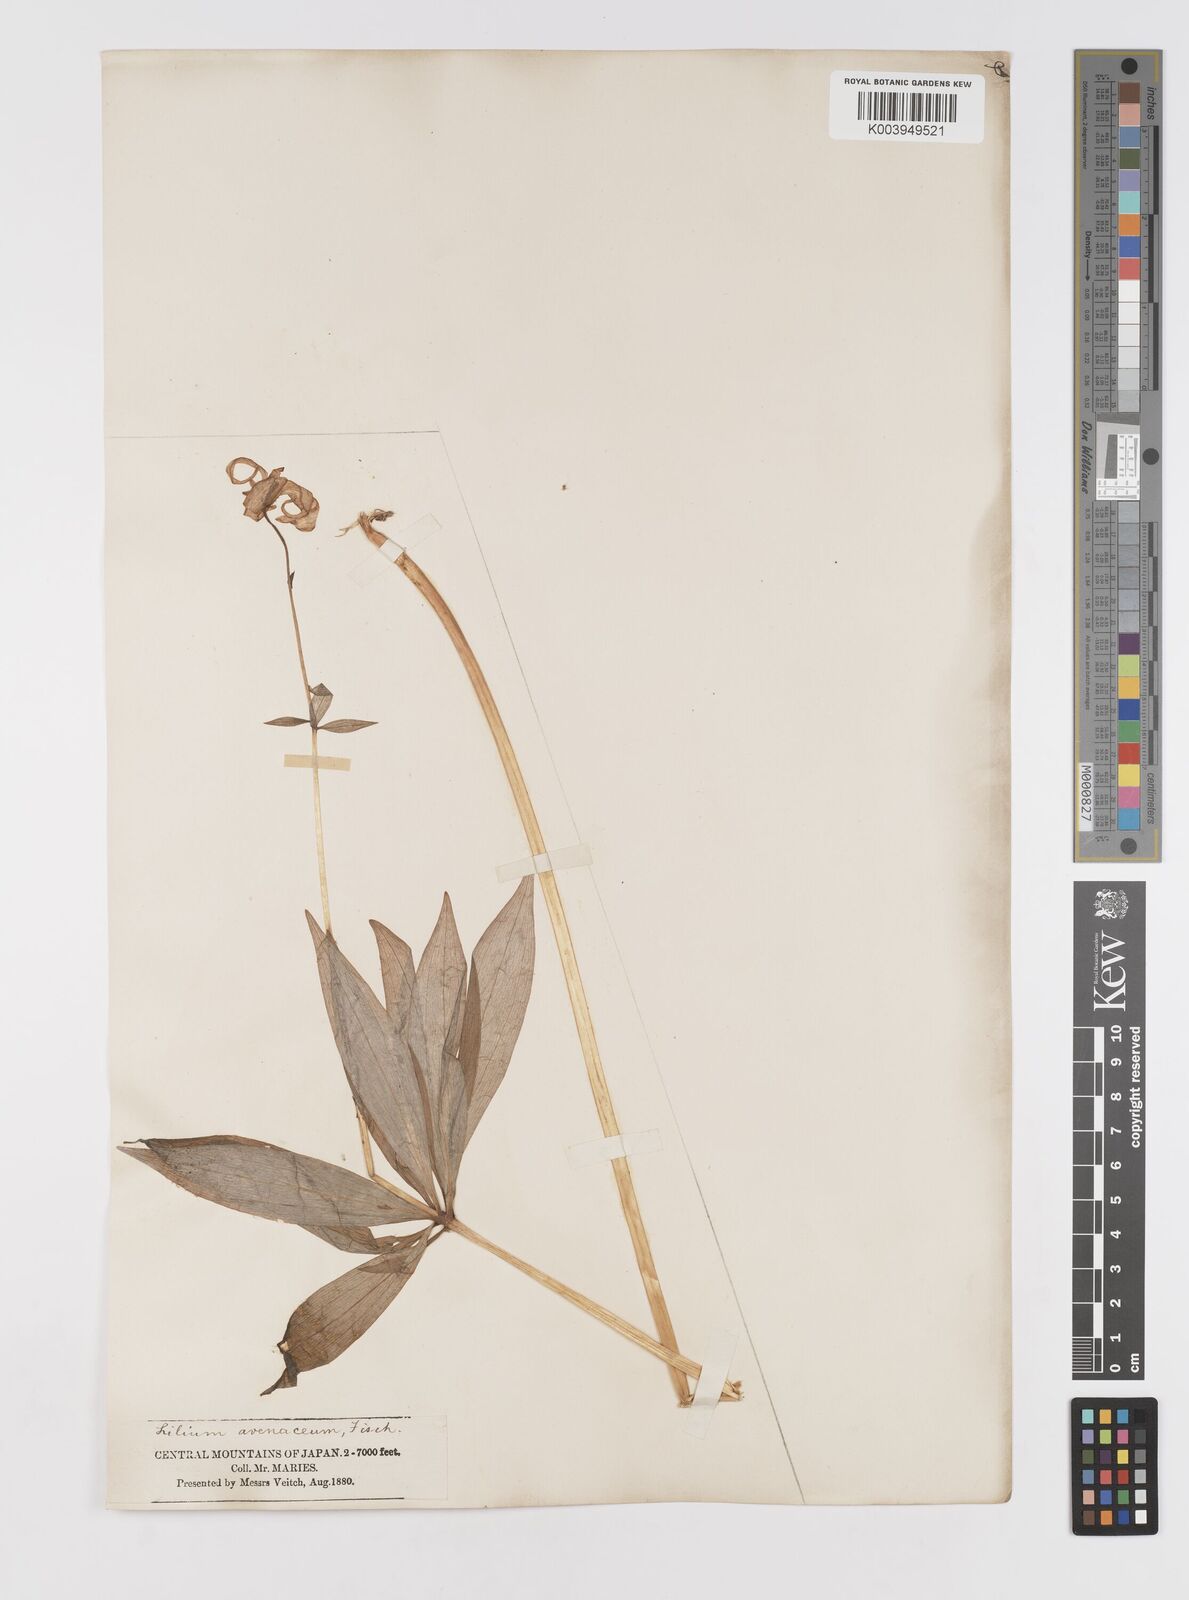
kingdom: Plantae
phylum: Tracheophyta
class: Liliopsida
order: Liliales
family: Liliaceae
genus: Lilium
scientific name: Lilium medeoloides
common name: Wheel lily
